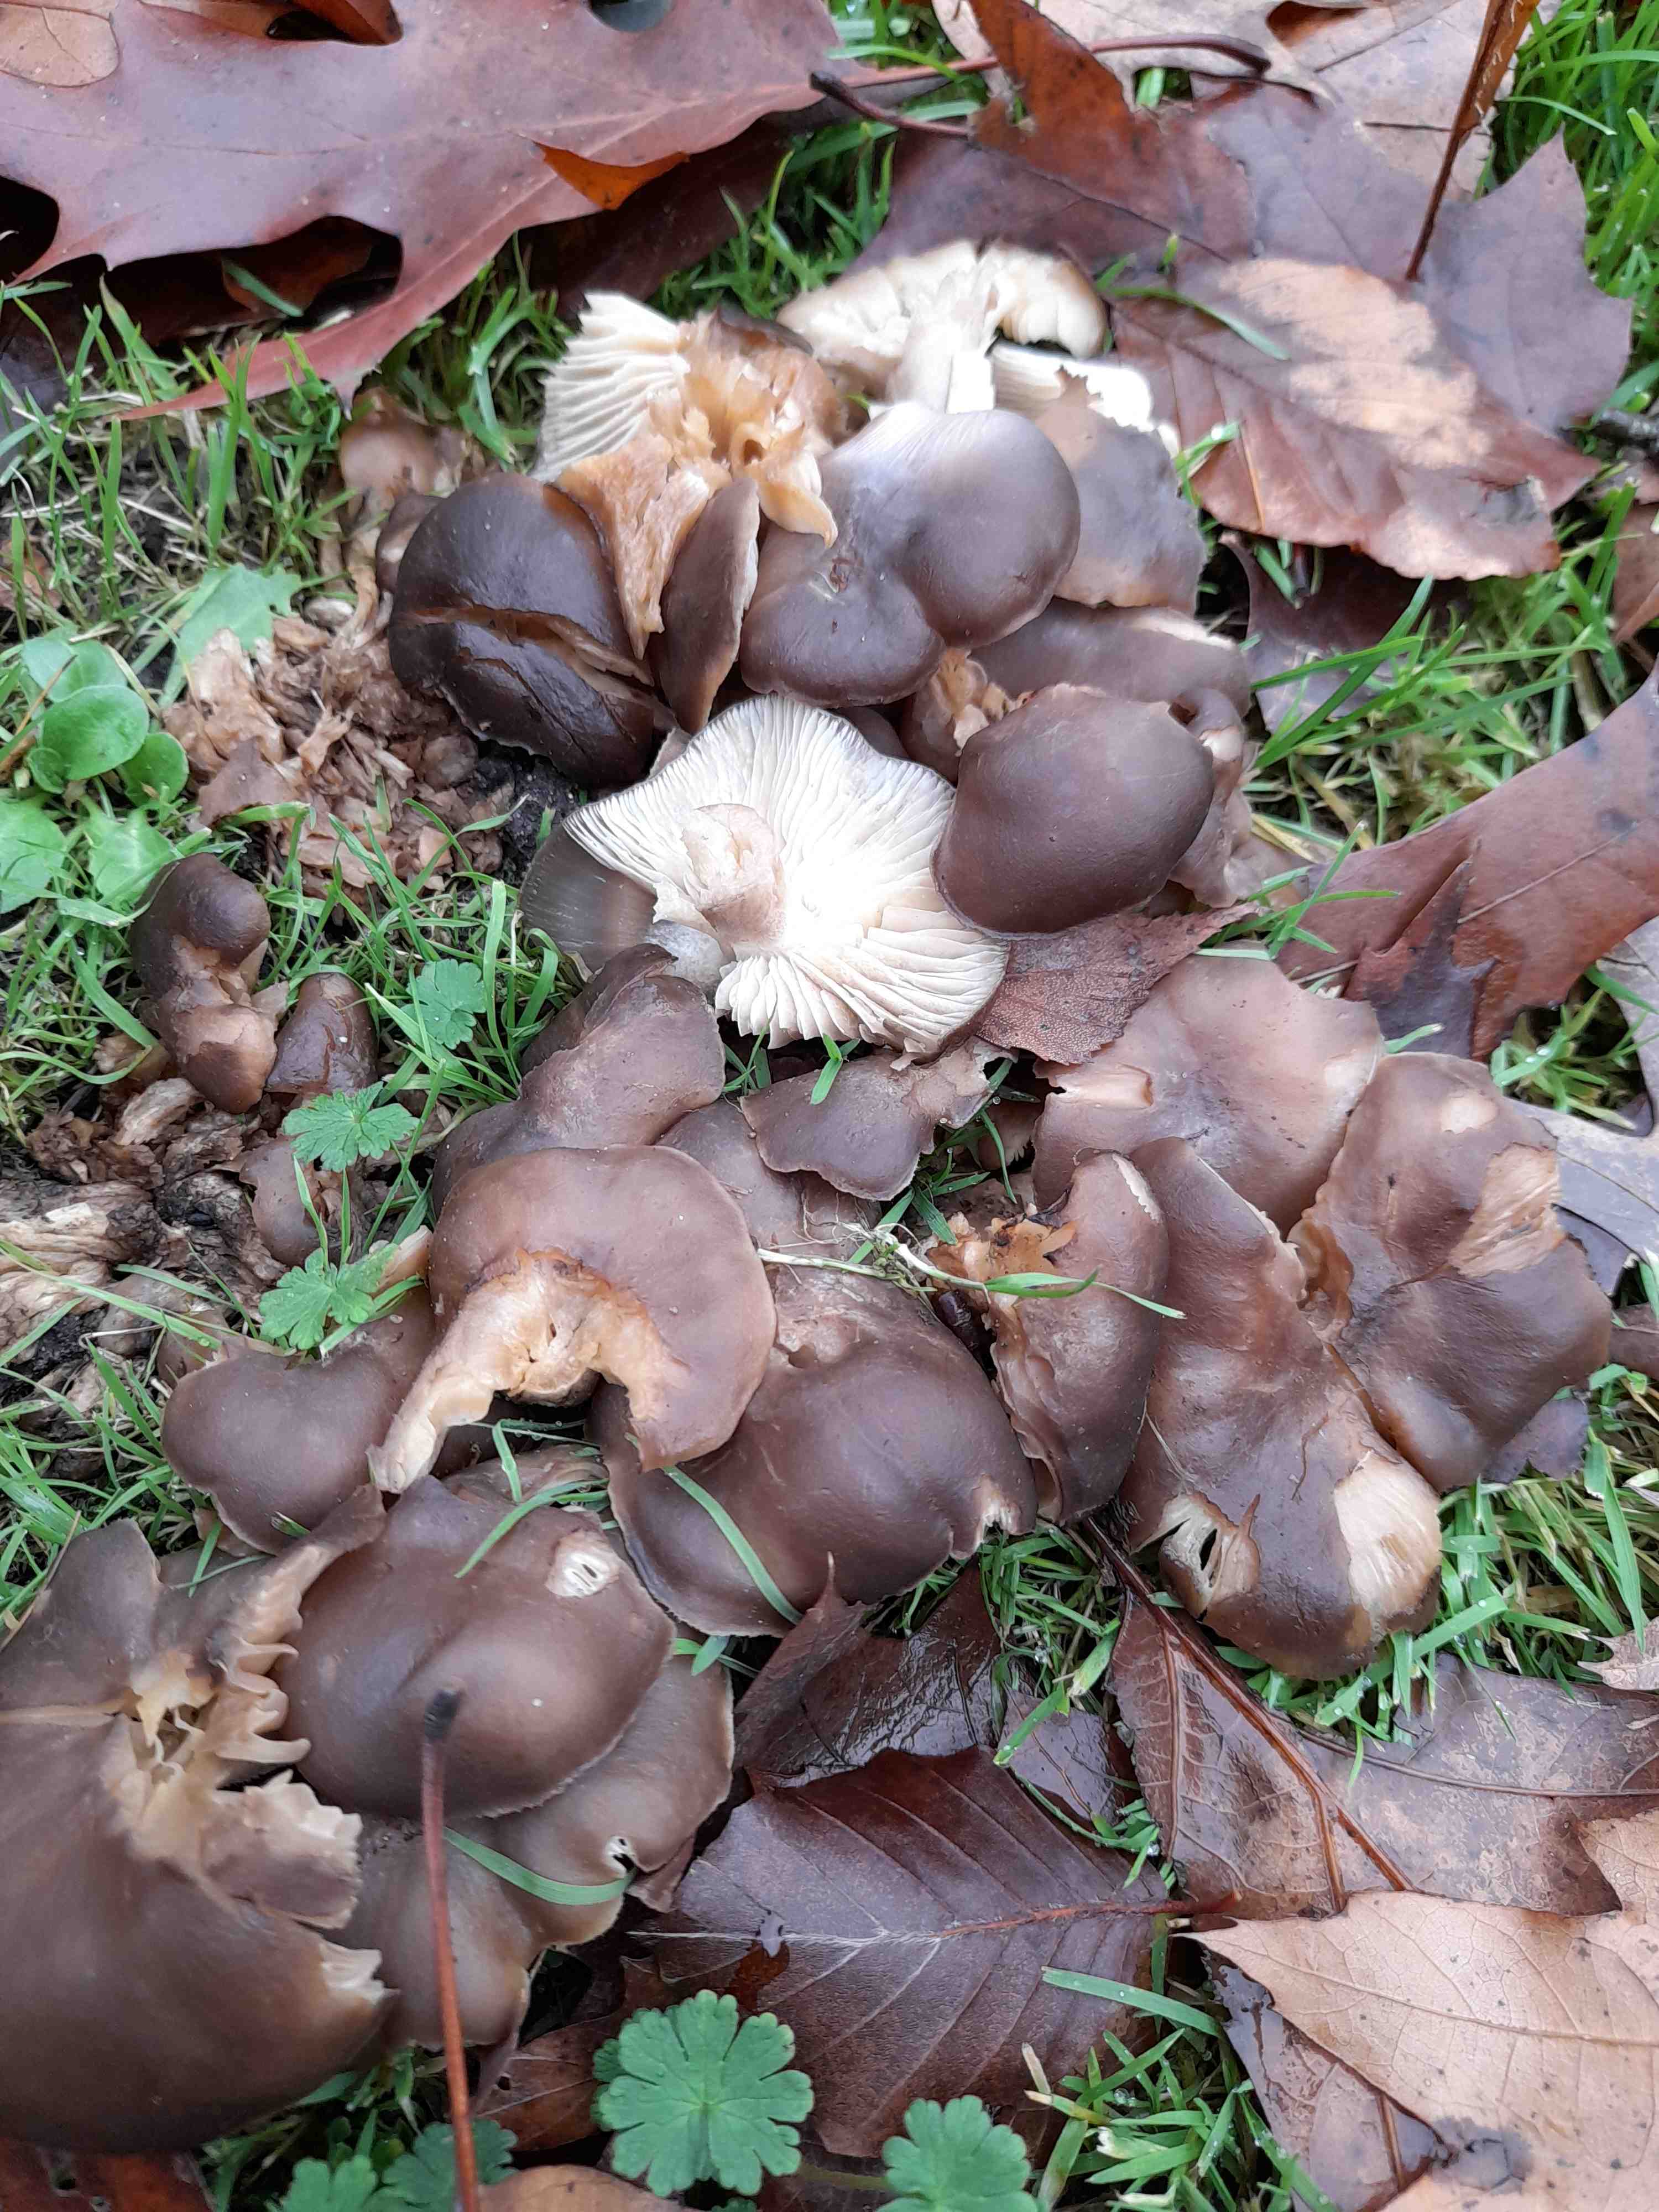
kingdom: Fungi
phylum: Basidiomycota
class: Agaricomycetes
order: Agaricales
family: Lyophyllaceae
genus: Lyophyllum
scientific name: Lyophyllum decastes
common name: Clustered domecap
